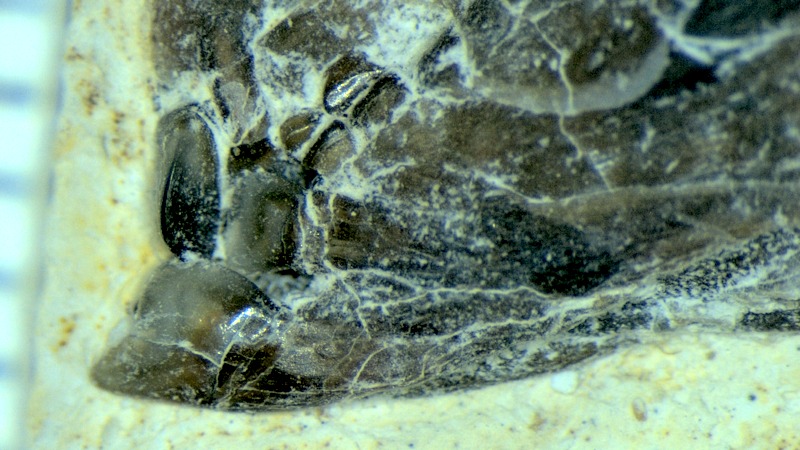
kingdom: Animalia
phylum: Chordata
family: Pycnodontidae
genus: Proscinetes
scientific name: Proscinetes bernardi
